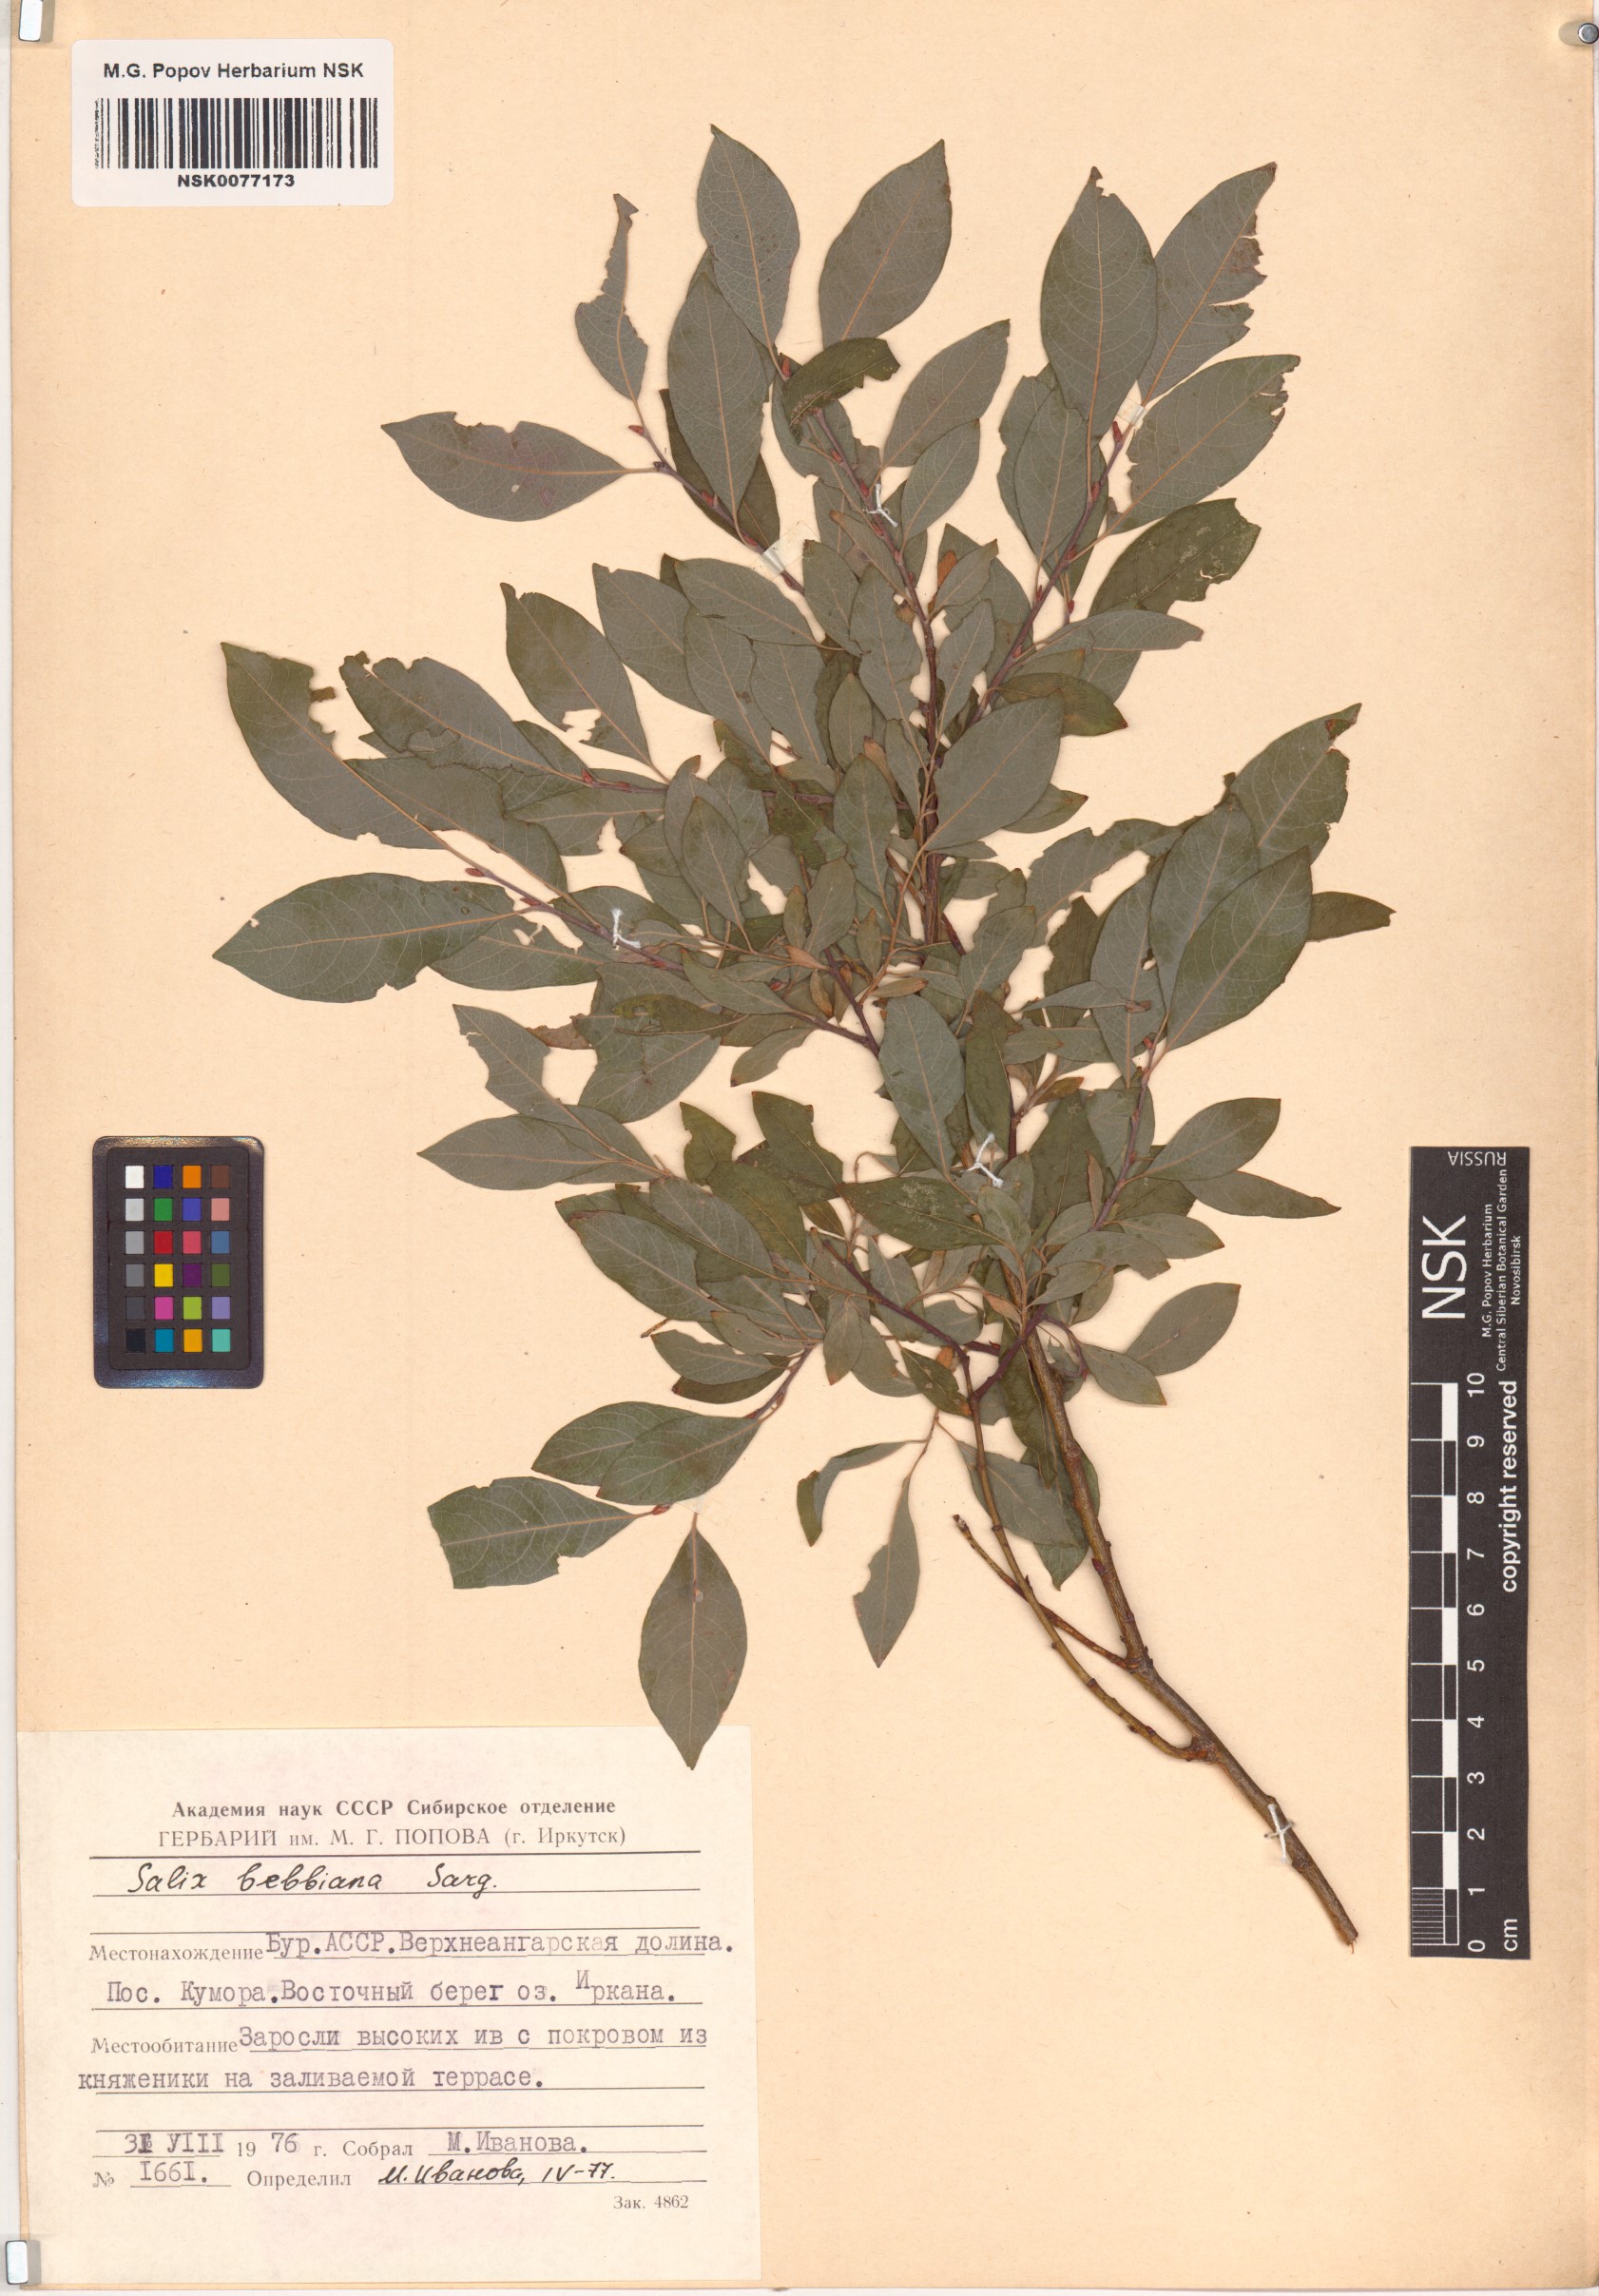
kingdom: Plantae
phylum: Tracheophyta
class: Magnoliopsida
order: Malpighiales
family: Salicaceae
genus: Salix
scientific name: Salix bebbiana
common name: Bebb's willow
